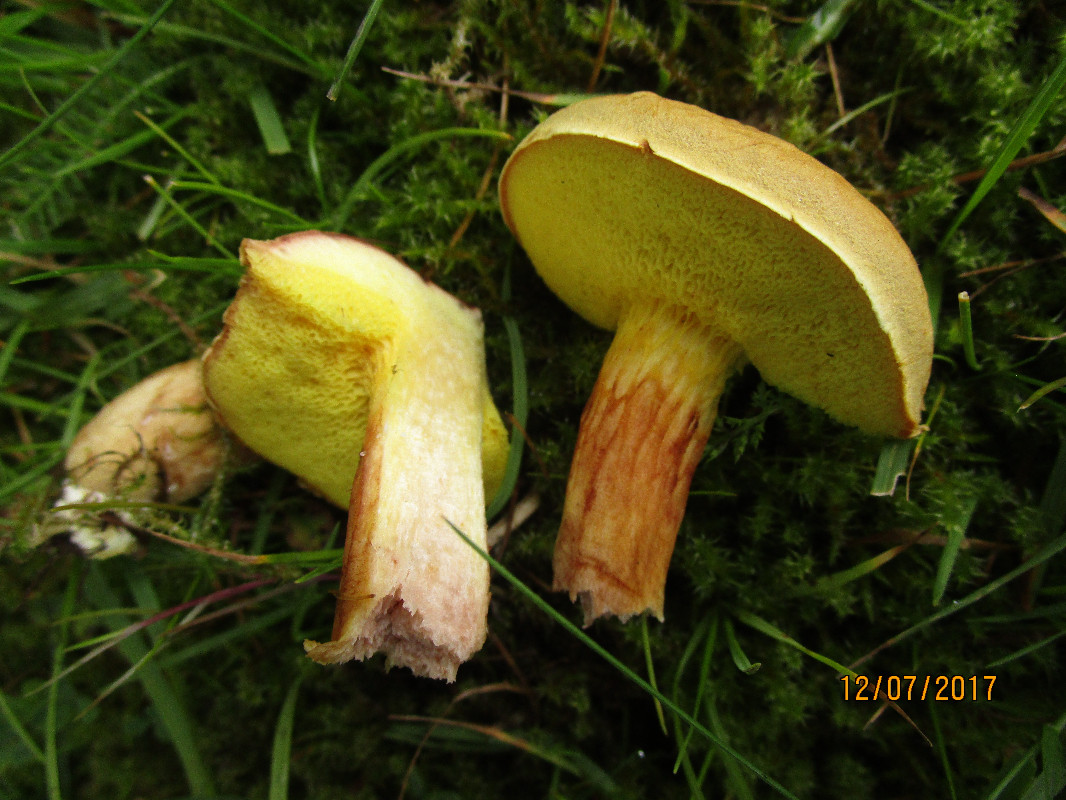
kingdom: Fungi
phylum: Basidiomycota
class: Agaricomycetes
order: Boletales
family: Boletaceae
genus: Xerocomus
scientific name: Xerocomus subtomentosus
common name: filtet rørhat
